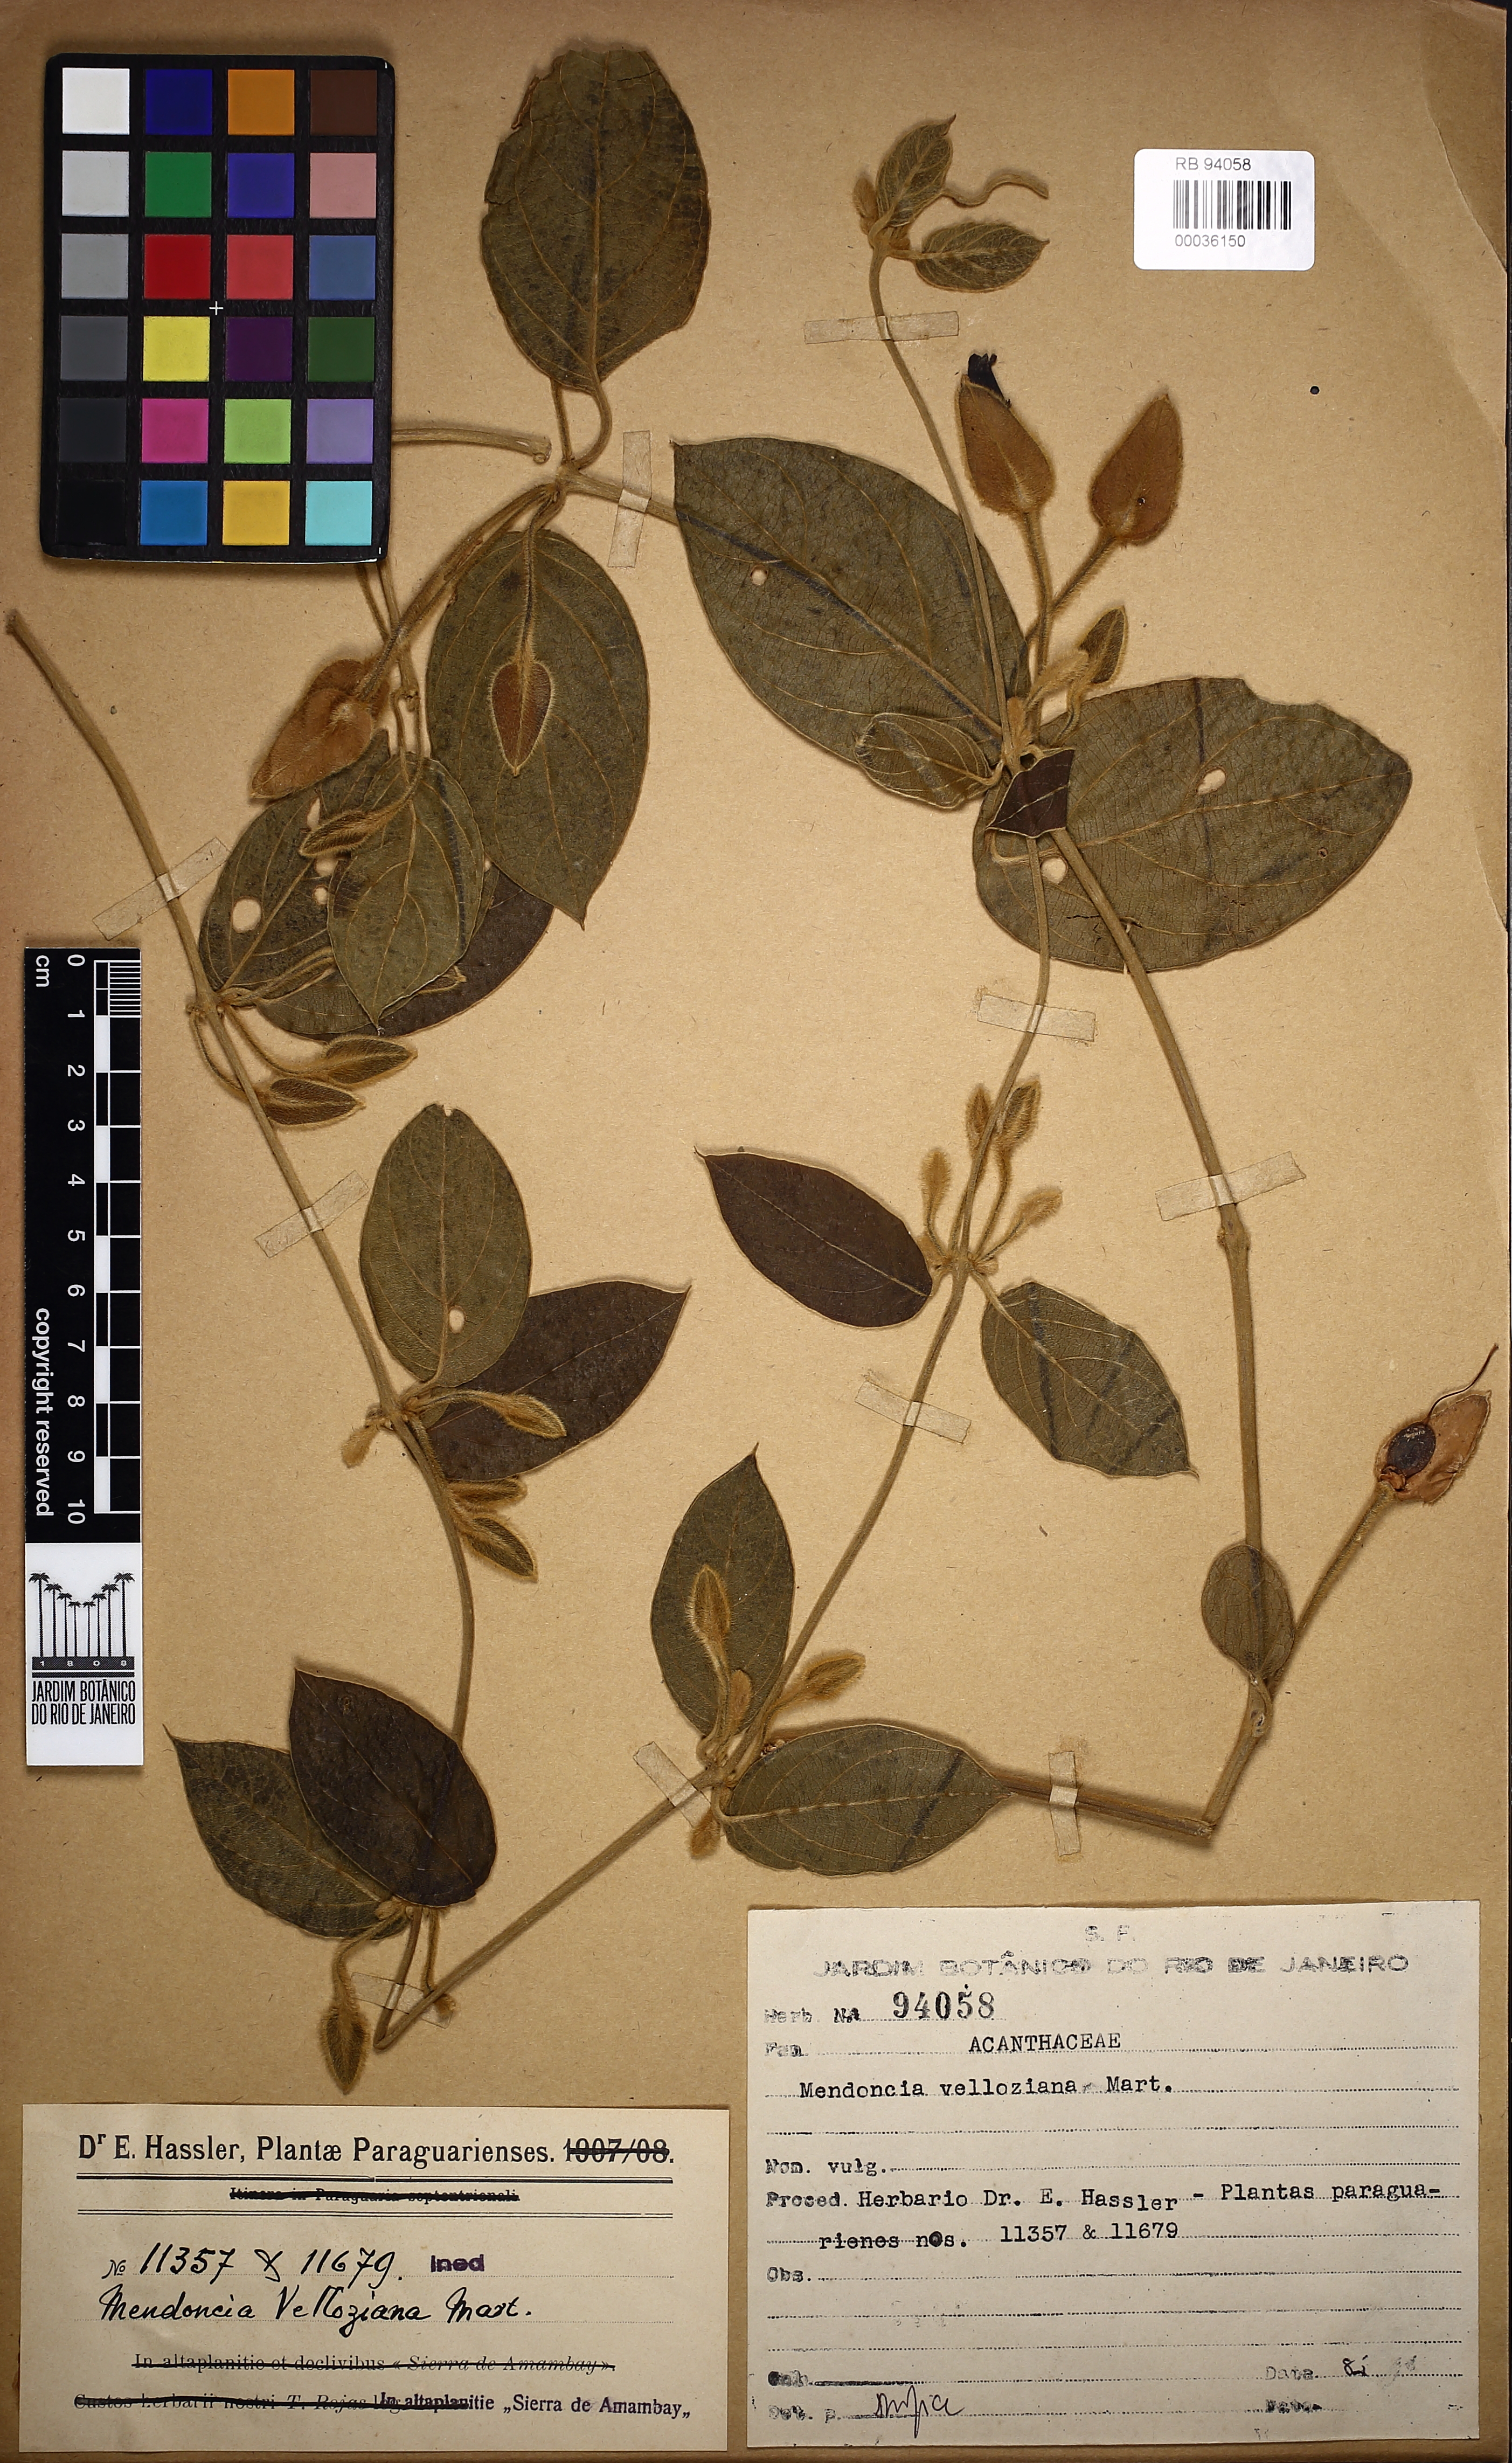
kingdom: Plantae
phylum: Tracheophyta
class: Magnoliopsida
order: Lamiales
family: Acanthaceae
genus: Mendoncia
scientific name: Mendoncia velloziana
